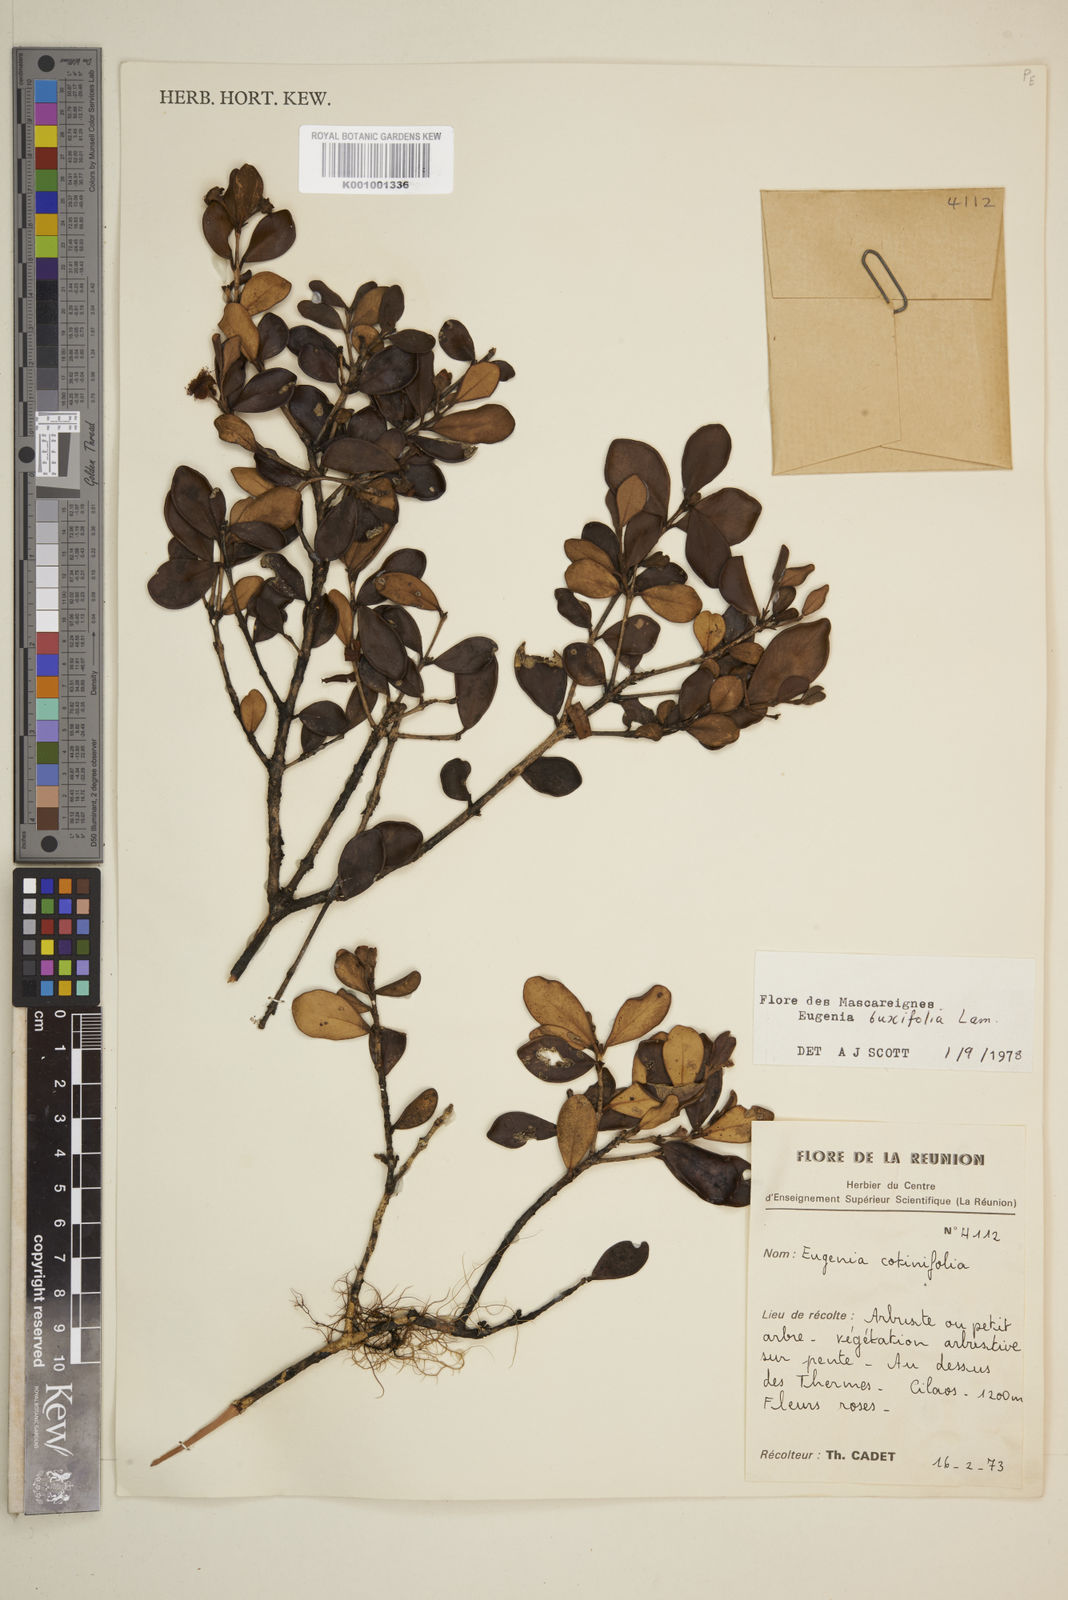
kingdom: Plantae
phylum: Tracheophyta
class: Magnoliopsida
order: Myrtales
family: Myrtaceae
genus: Eugenia
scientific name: Eugenia buxifolia
